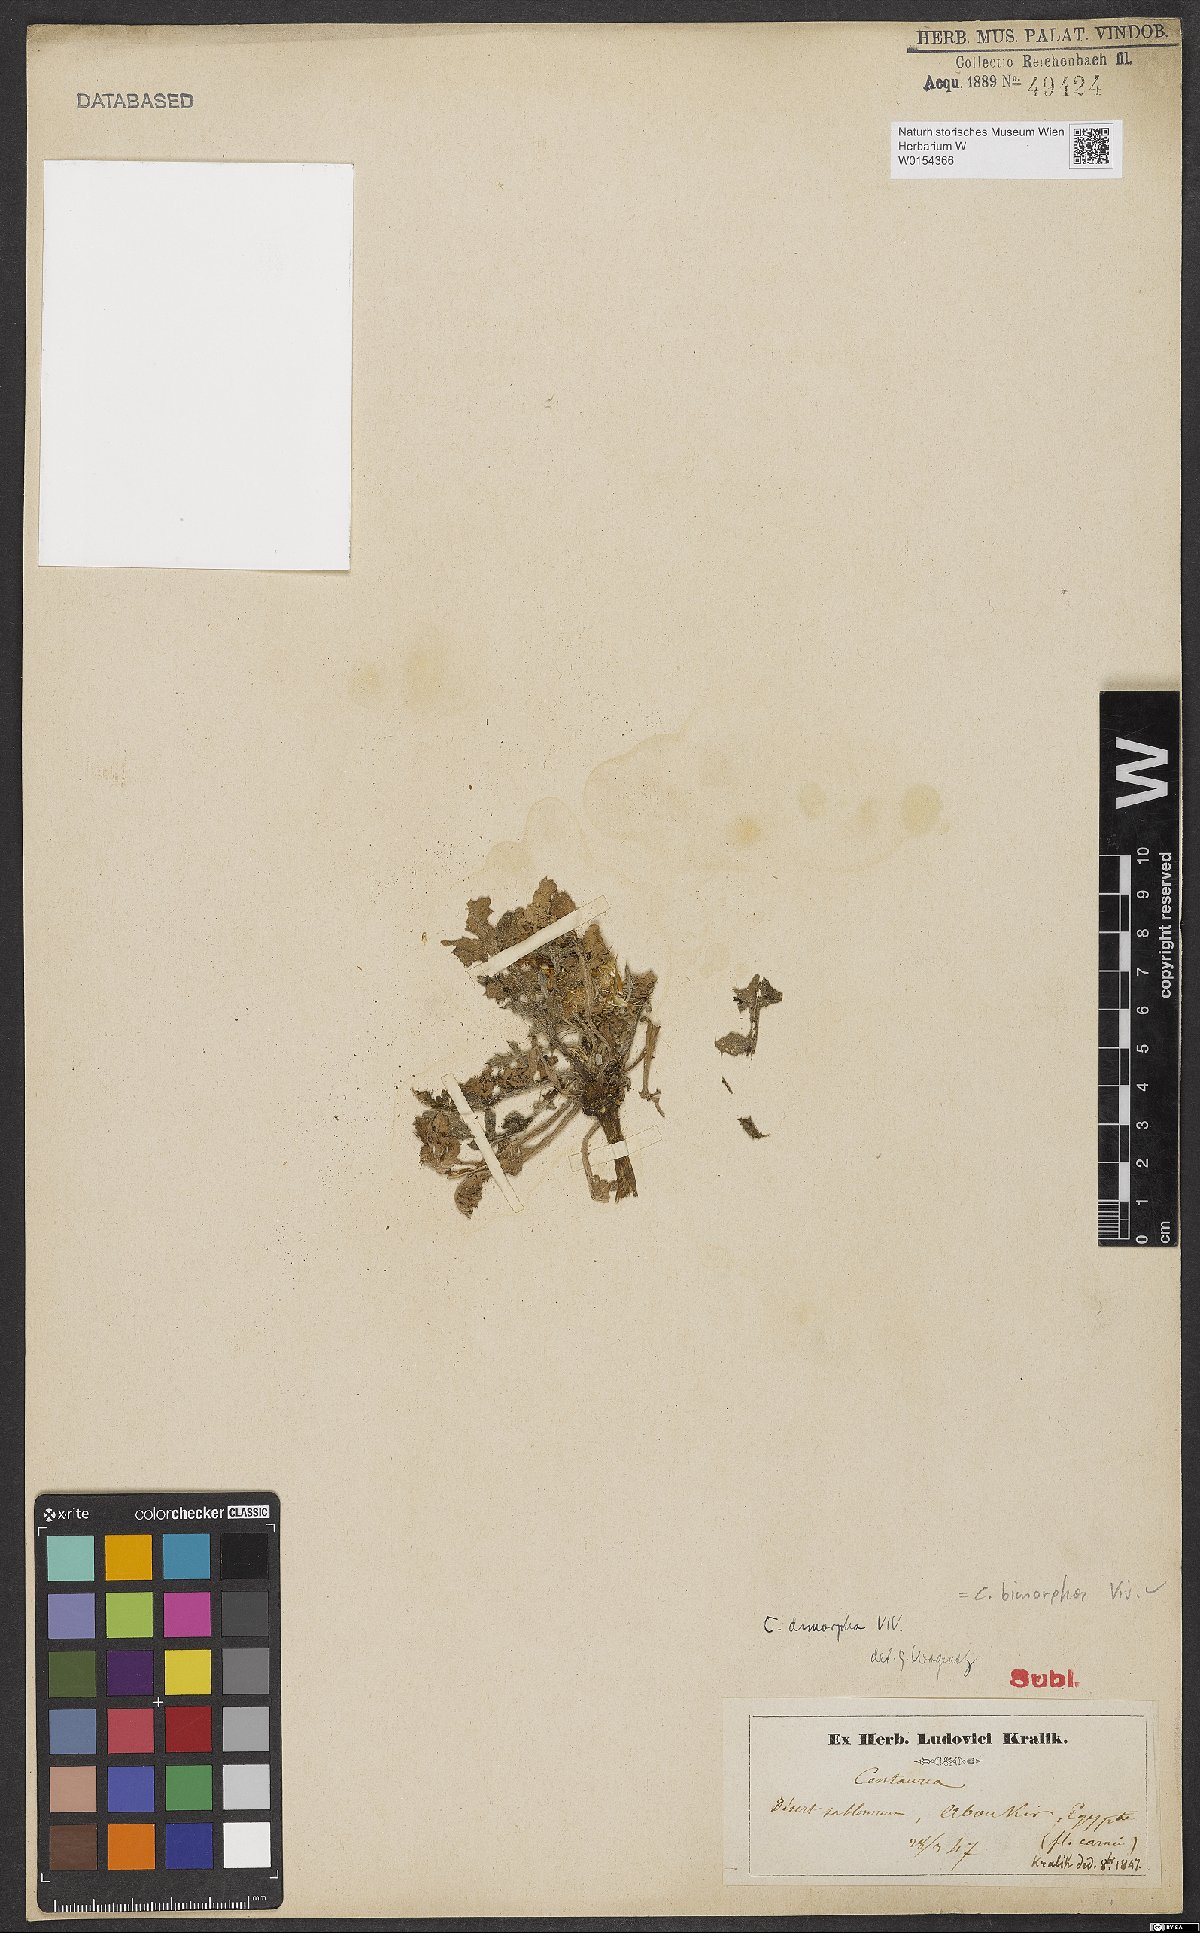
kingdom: Plantae
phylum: Tracheophyta
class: Magnoliopsida
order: Asterales
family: Asteraceae
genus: Centaurea
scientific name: Centaurea bimorpha
